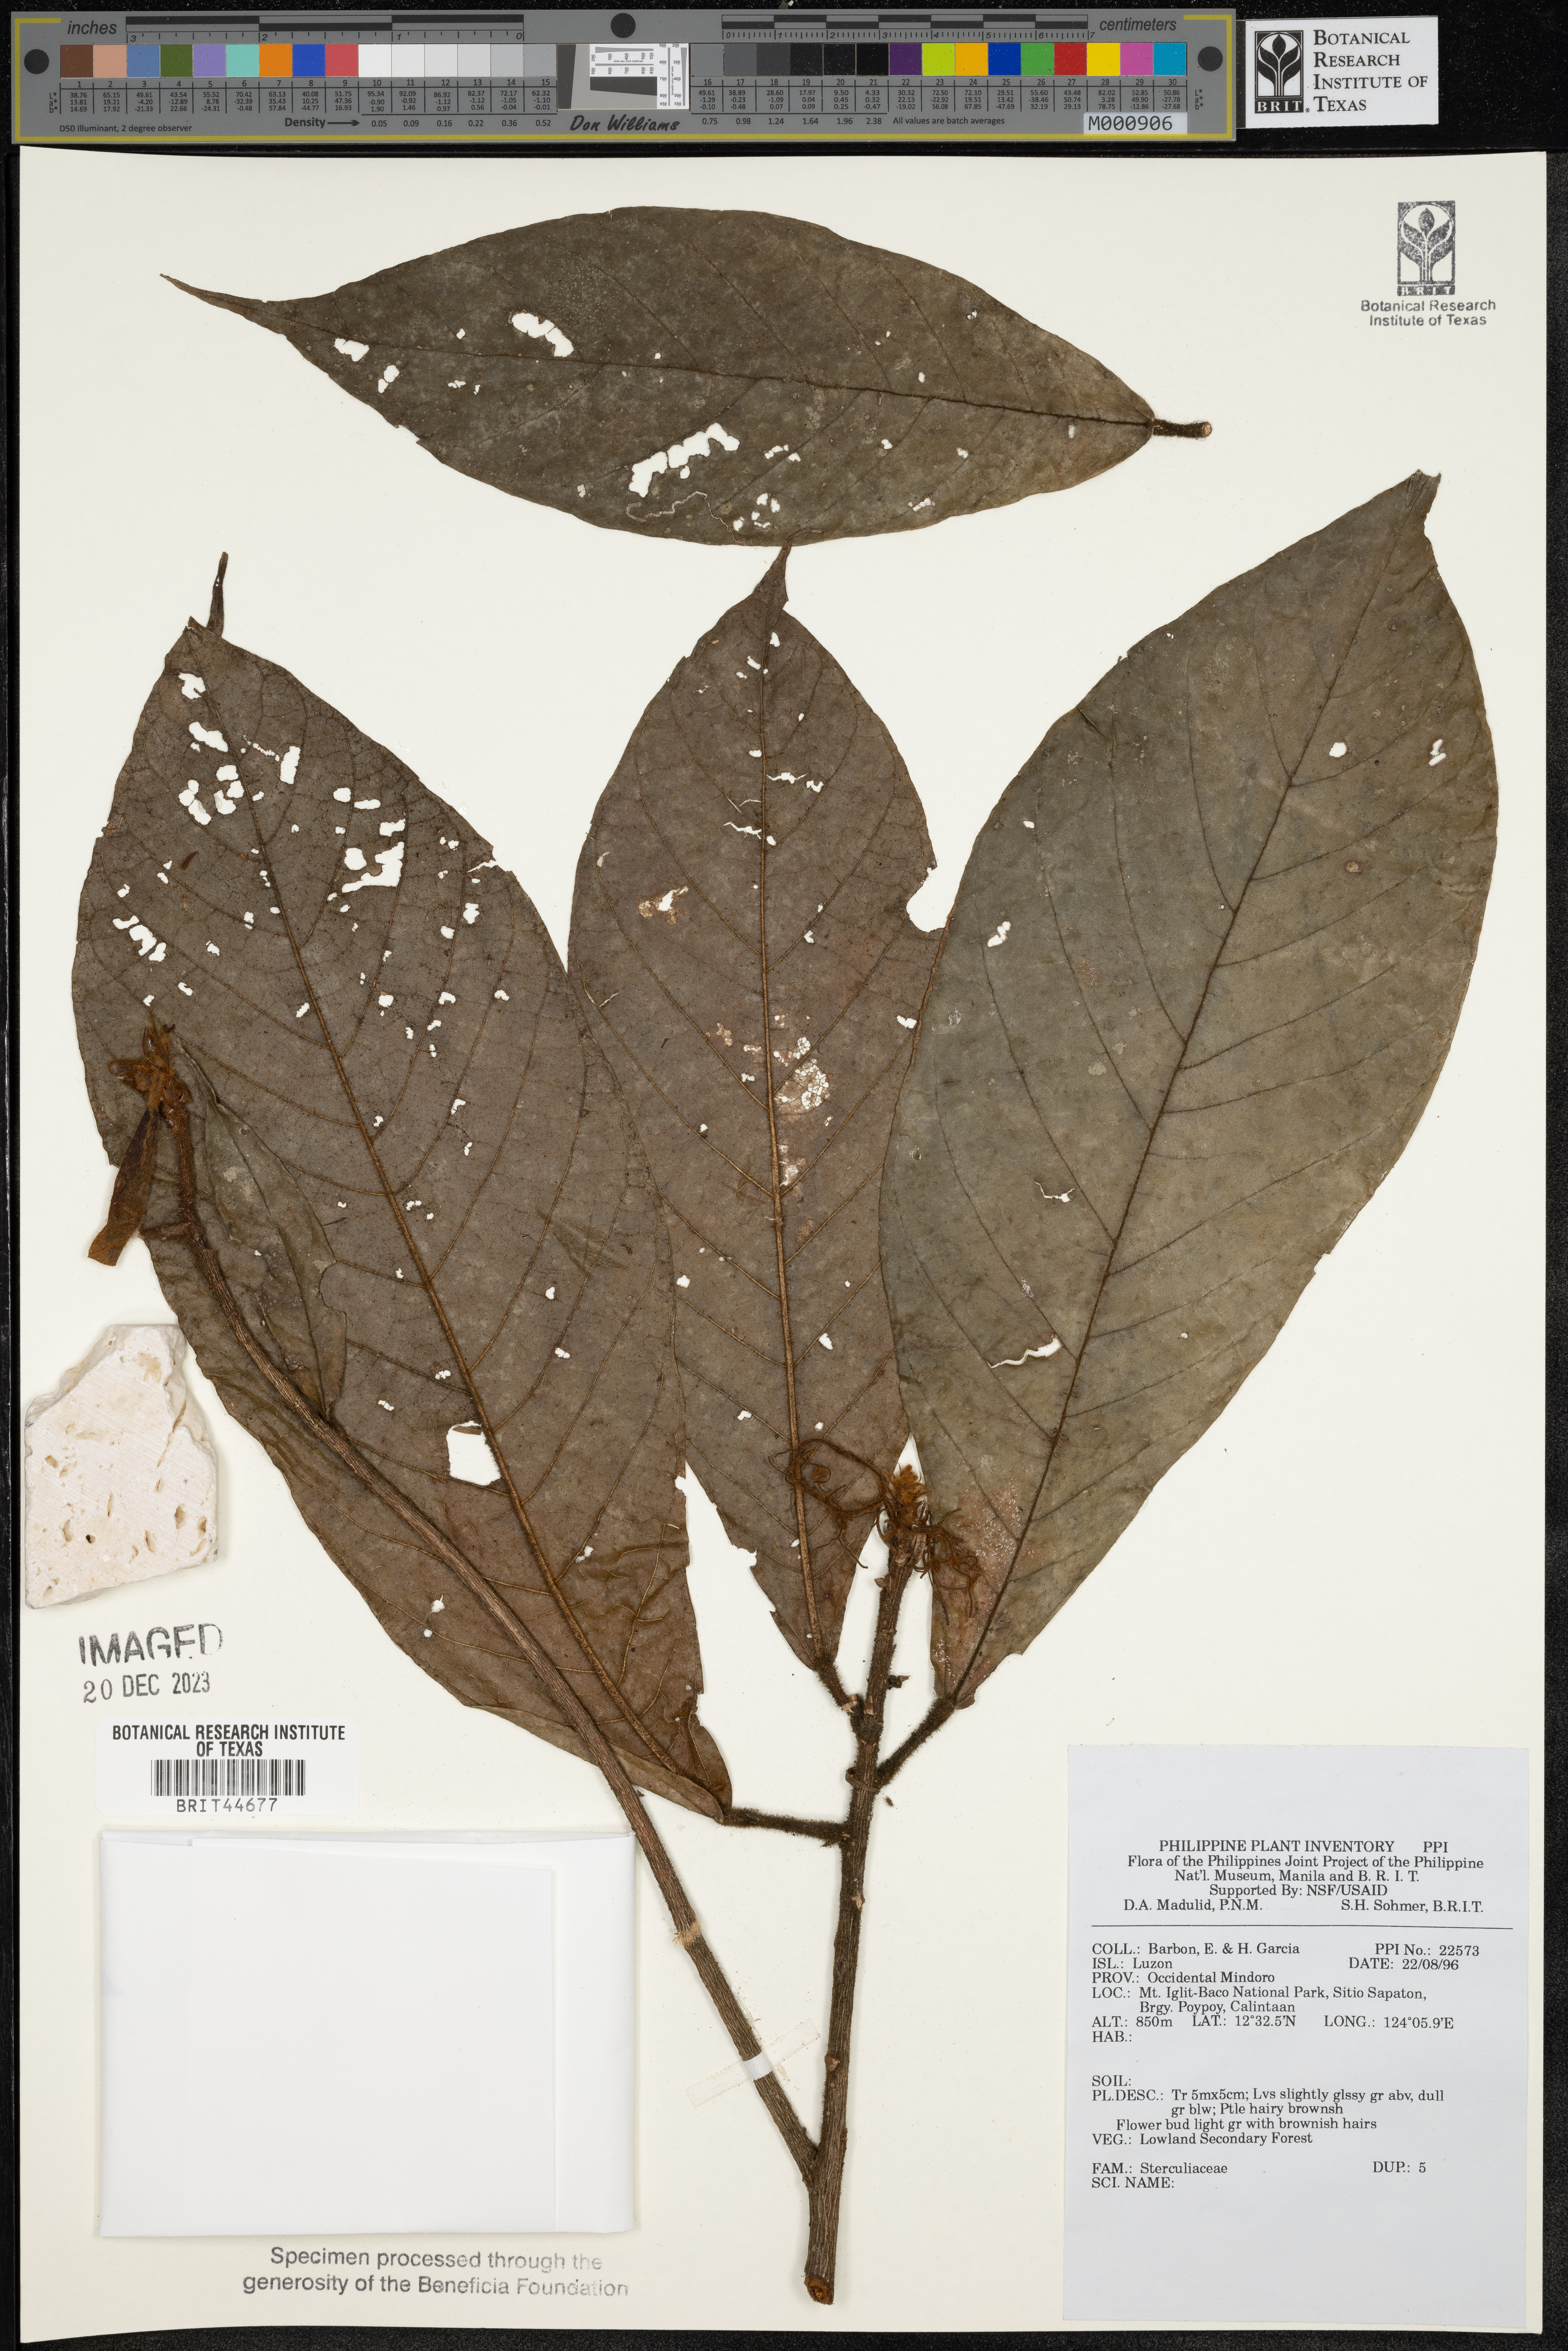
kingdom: Plantae
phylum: Tracheophyta
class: Magnoliopsida
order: Malvales
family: Sterculiaceae
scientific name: Sterculiaceae
